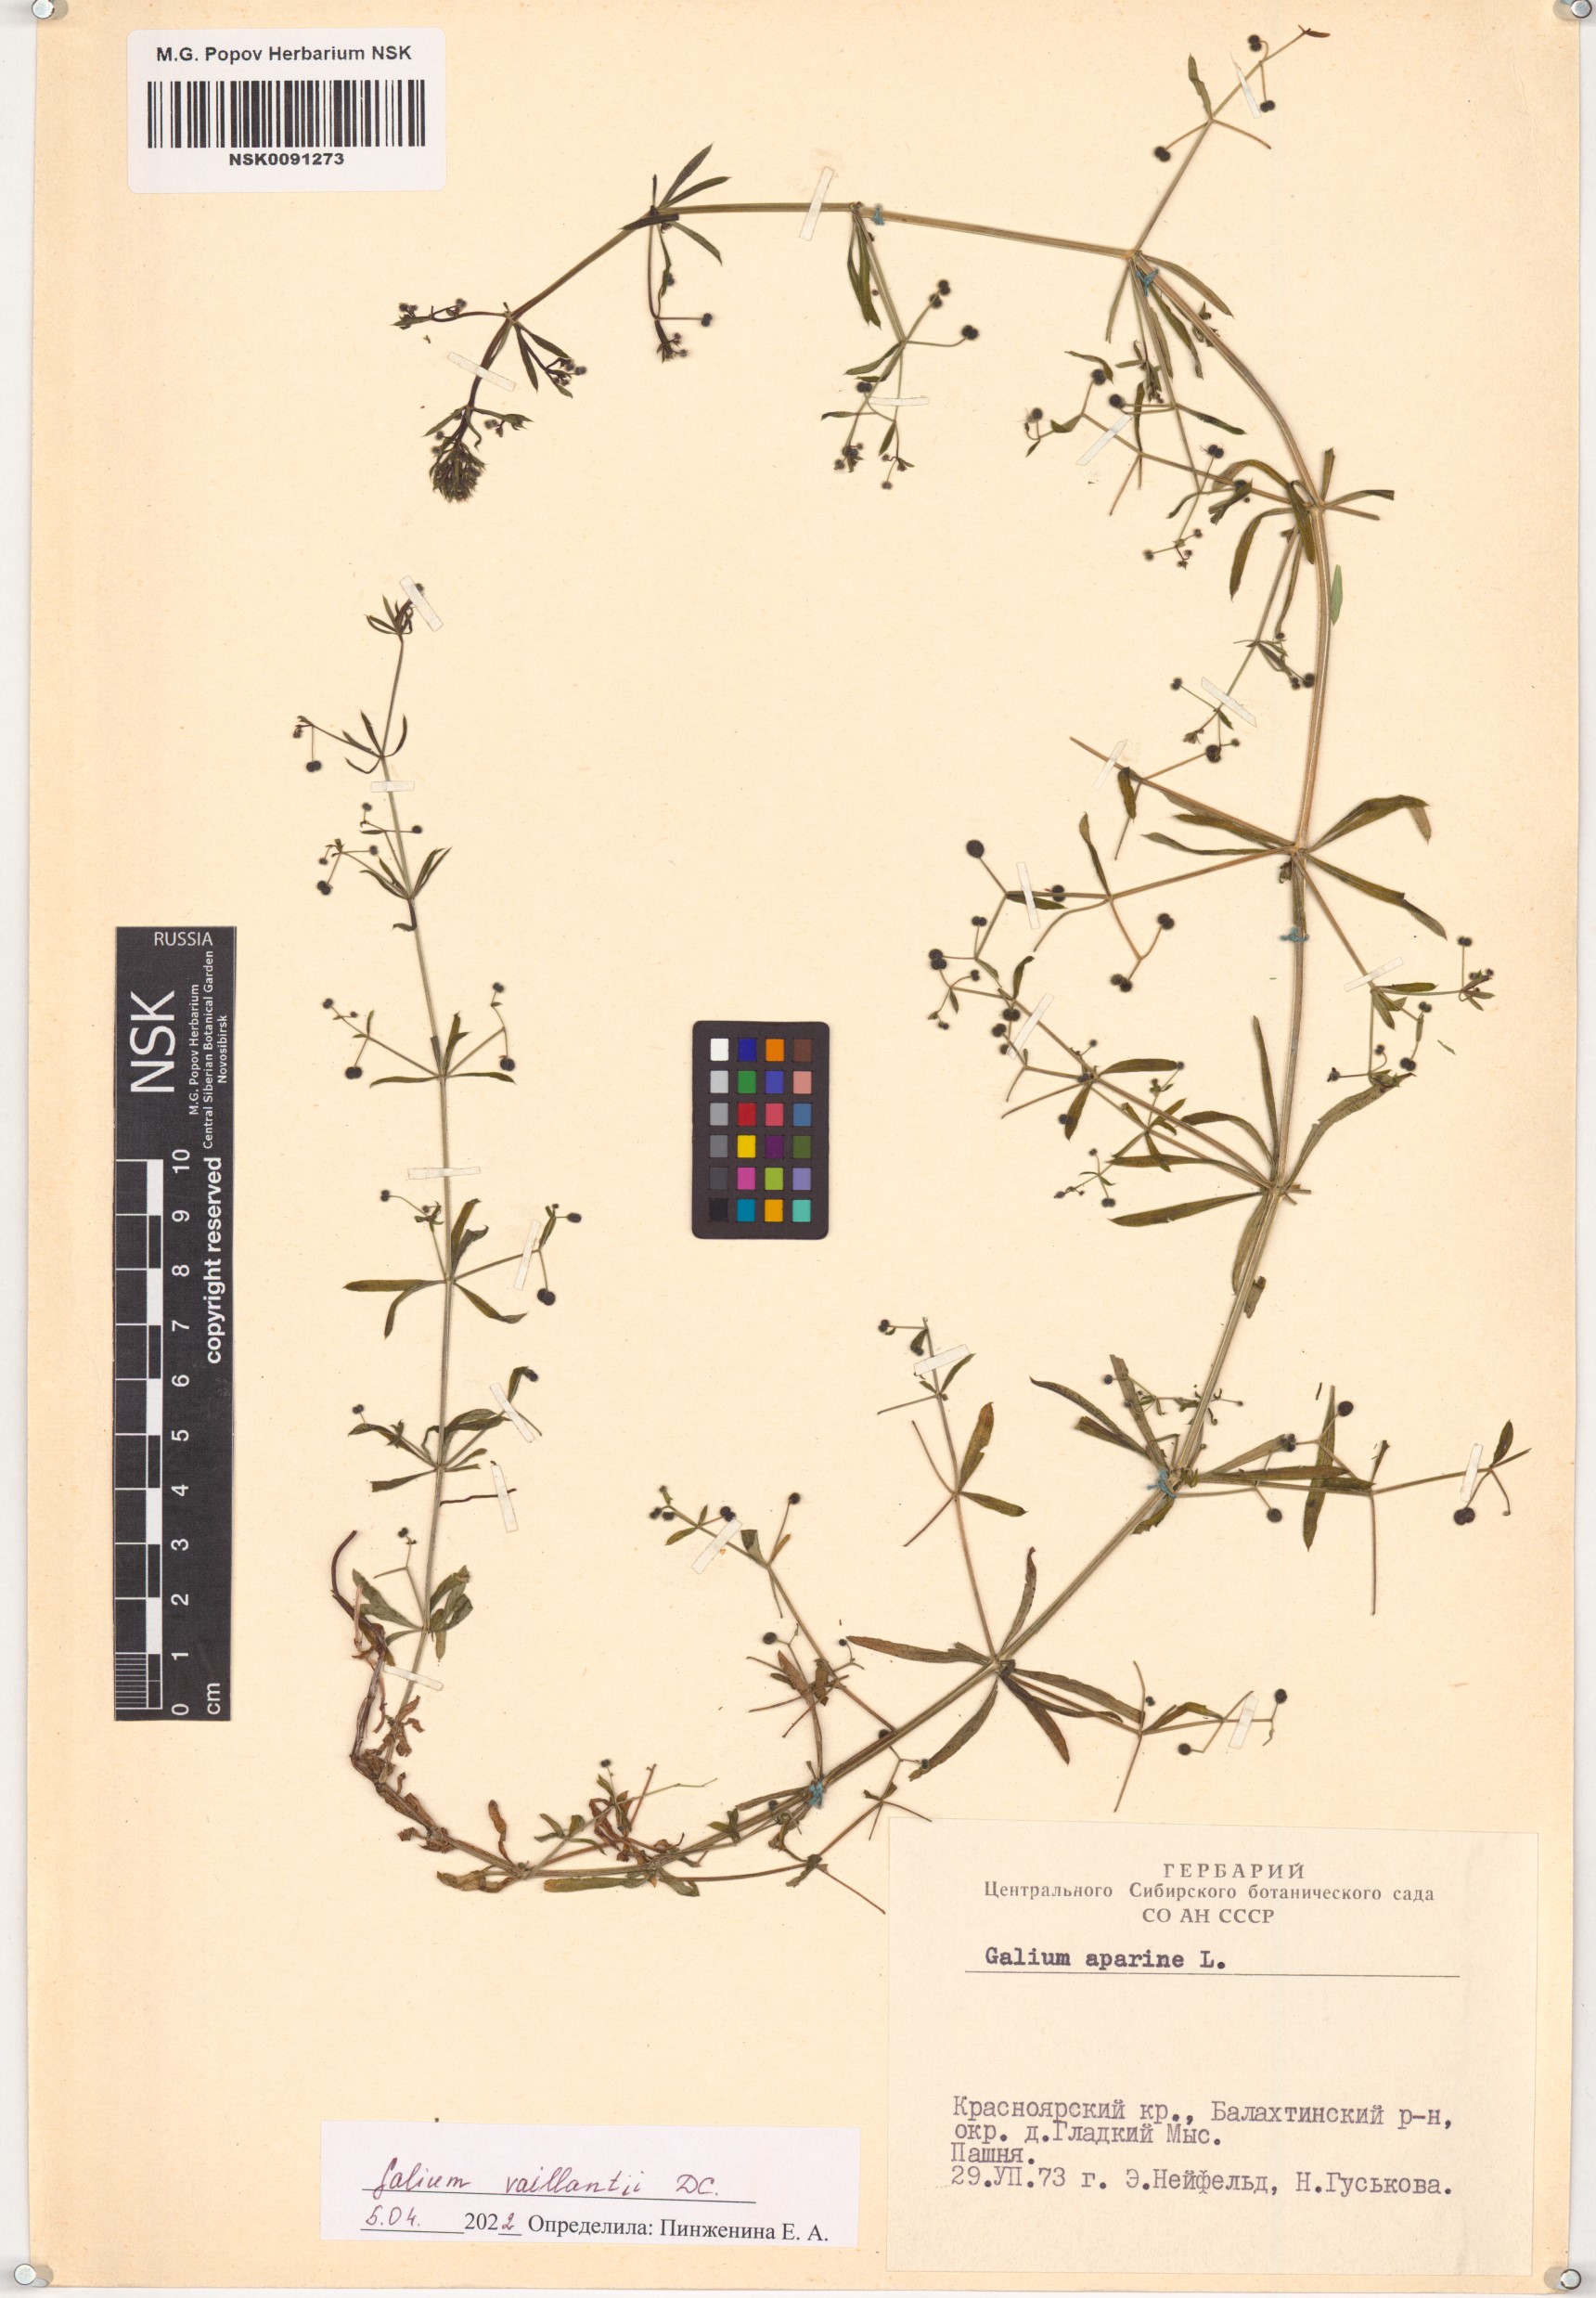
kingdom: Plantae
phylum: Tracheophyta
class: Magnoliopsida
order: Gentianales
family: Rubiaceae
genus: Galium
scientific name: Galium spurium
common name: False cleavers
